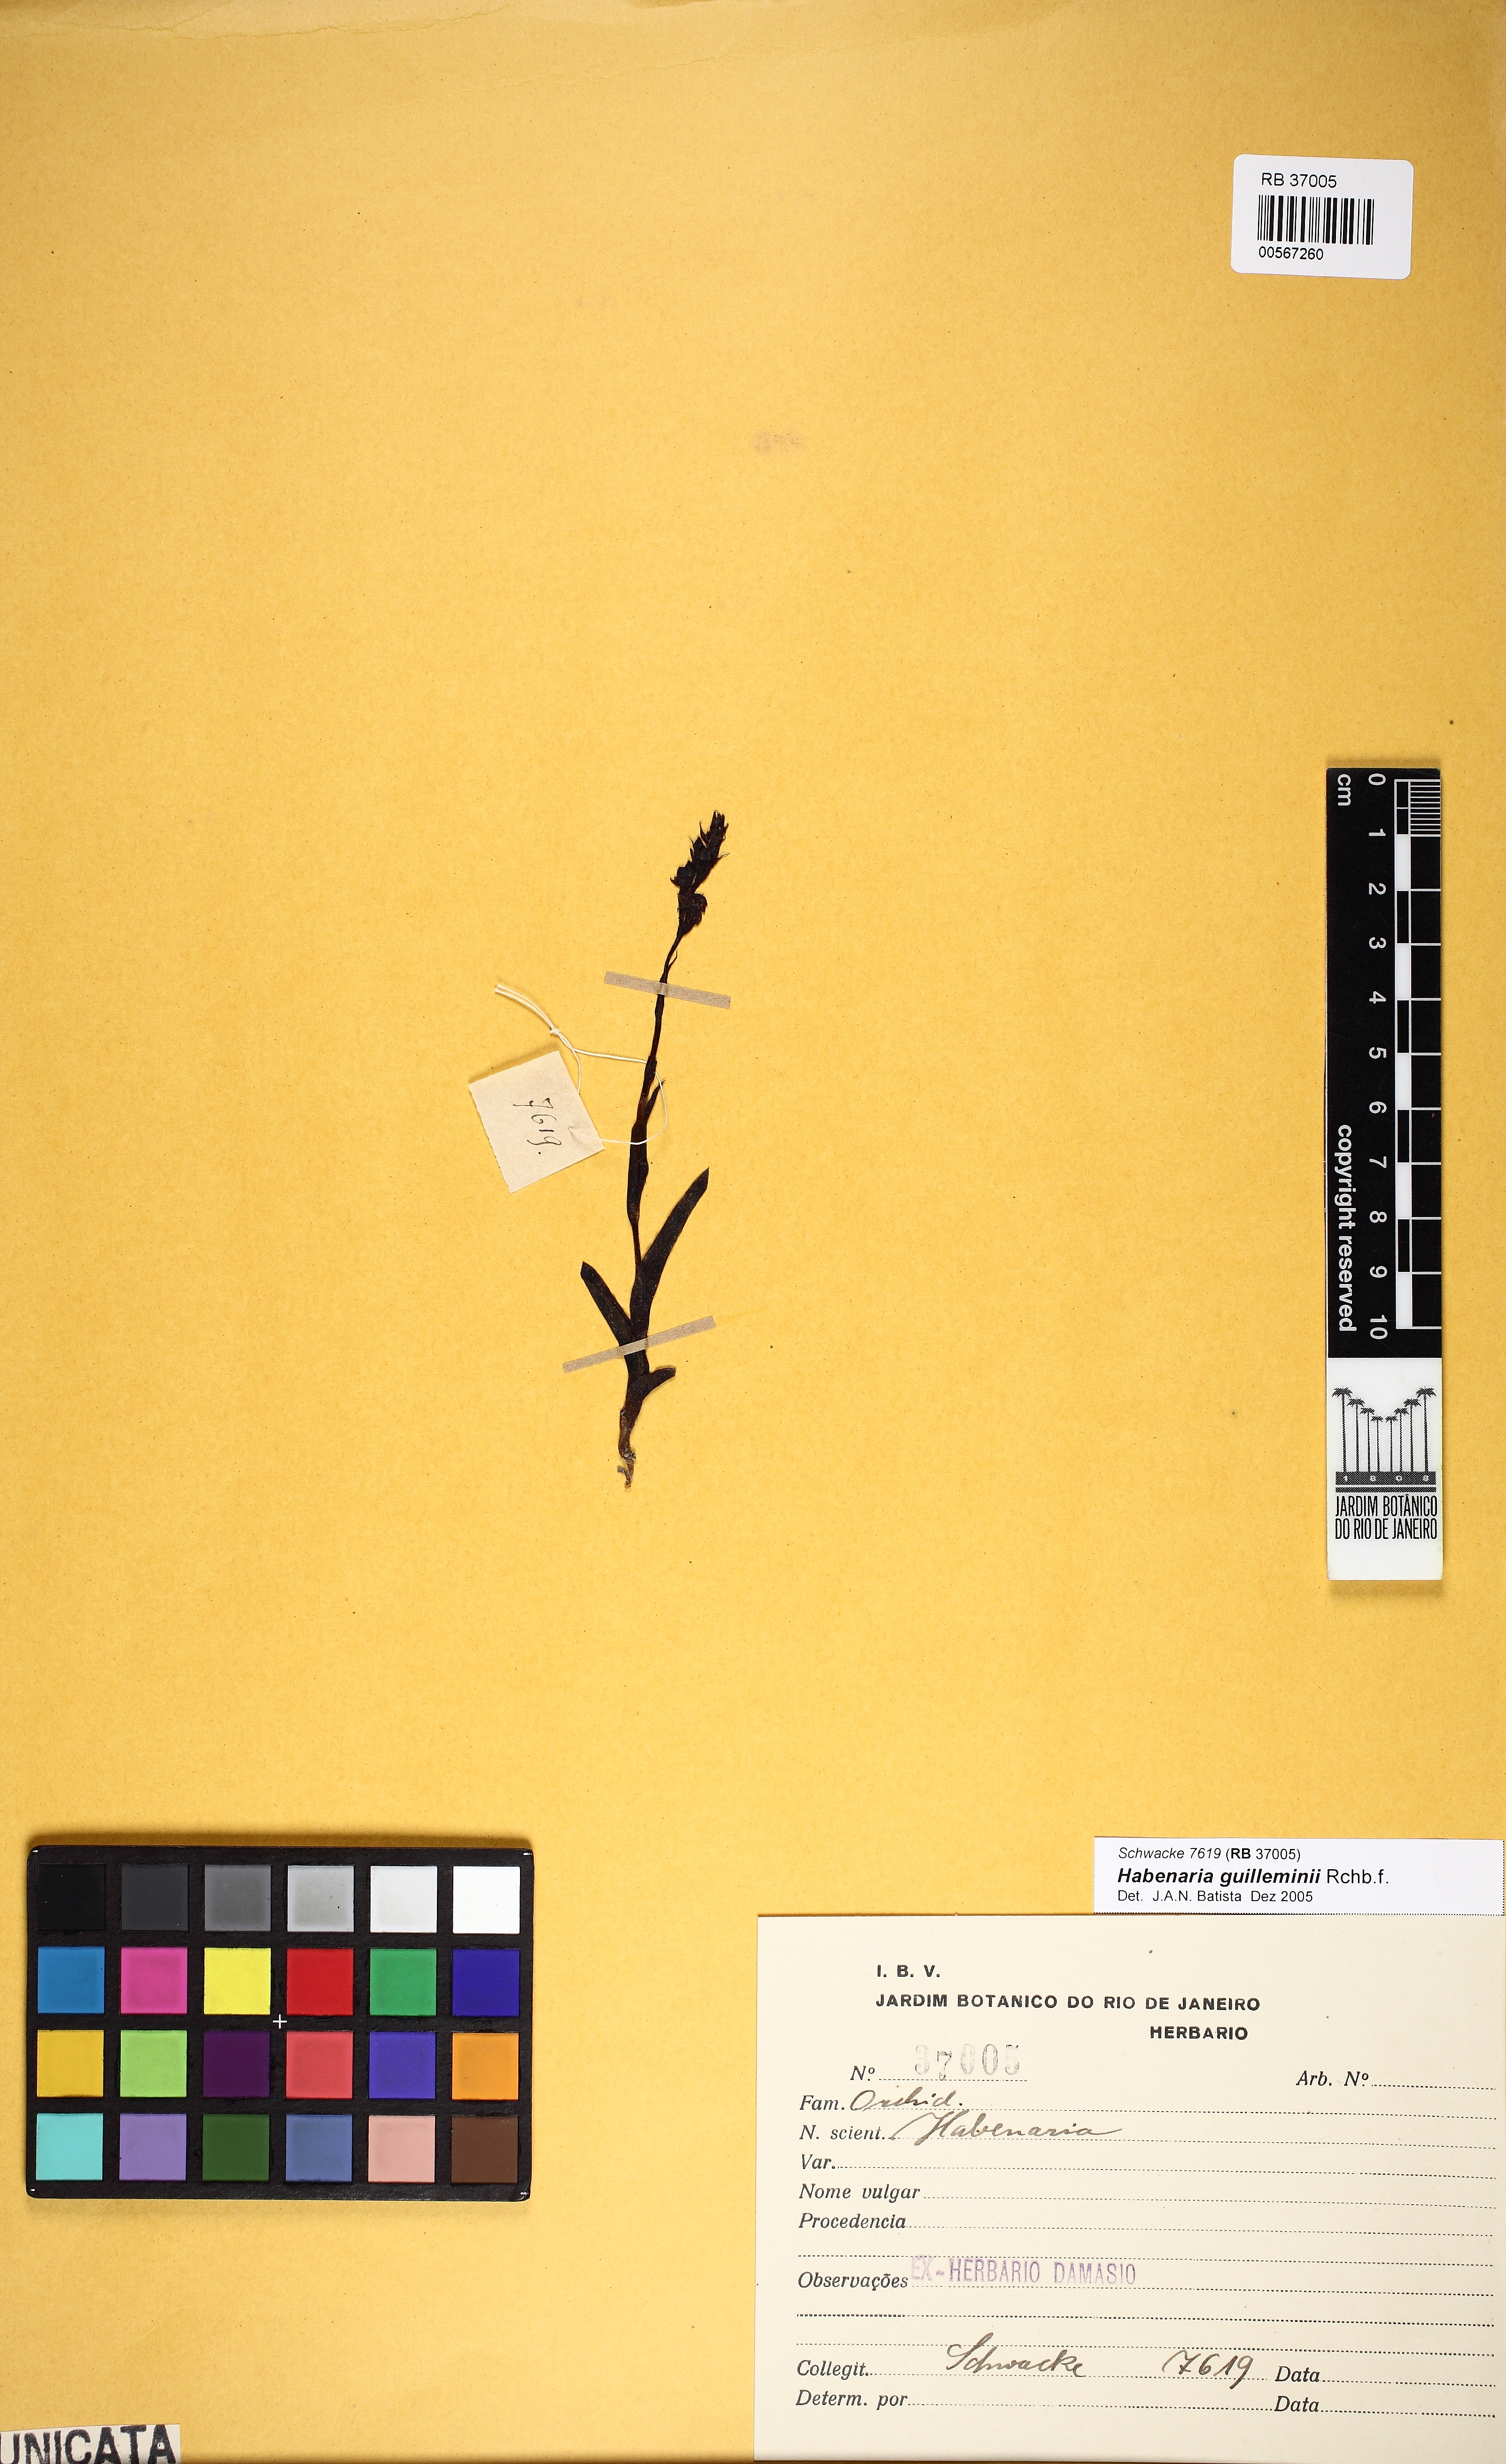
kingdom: Plantae
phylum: Tracheophyta
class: Liliopsida
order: Asparagales
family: Orchidaceae
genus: Habenaria
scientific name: Habenaria guilleminii
